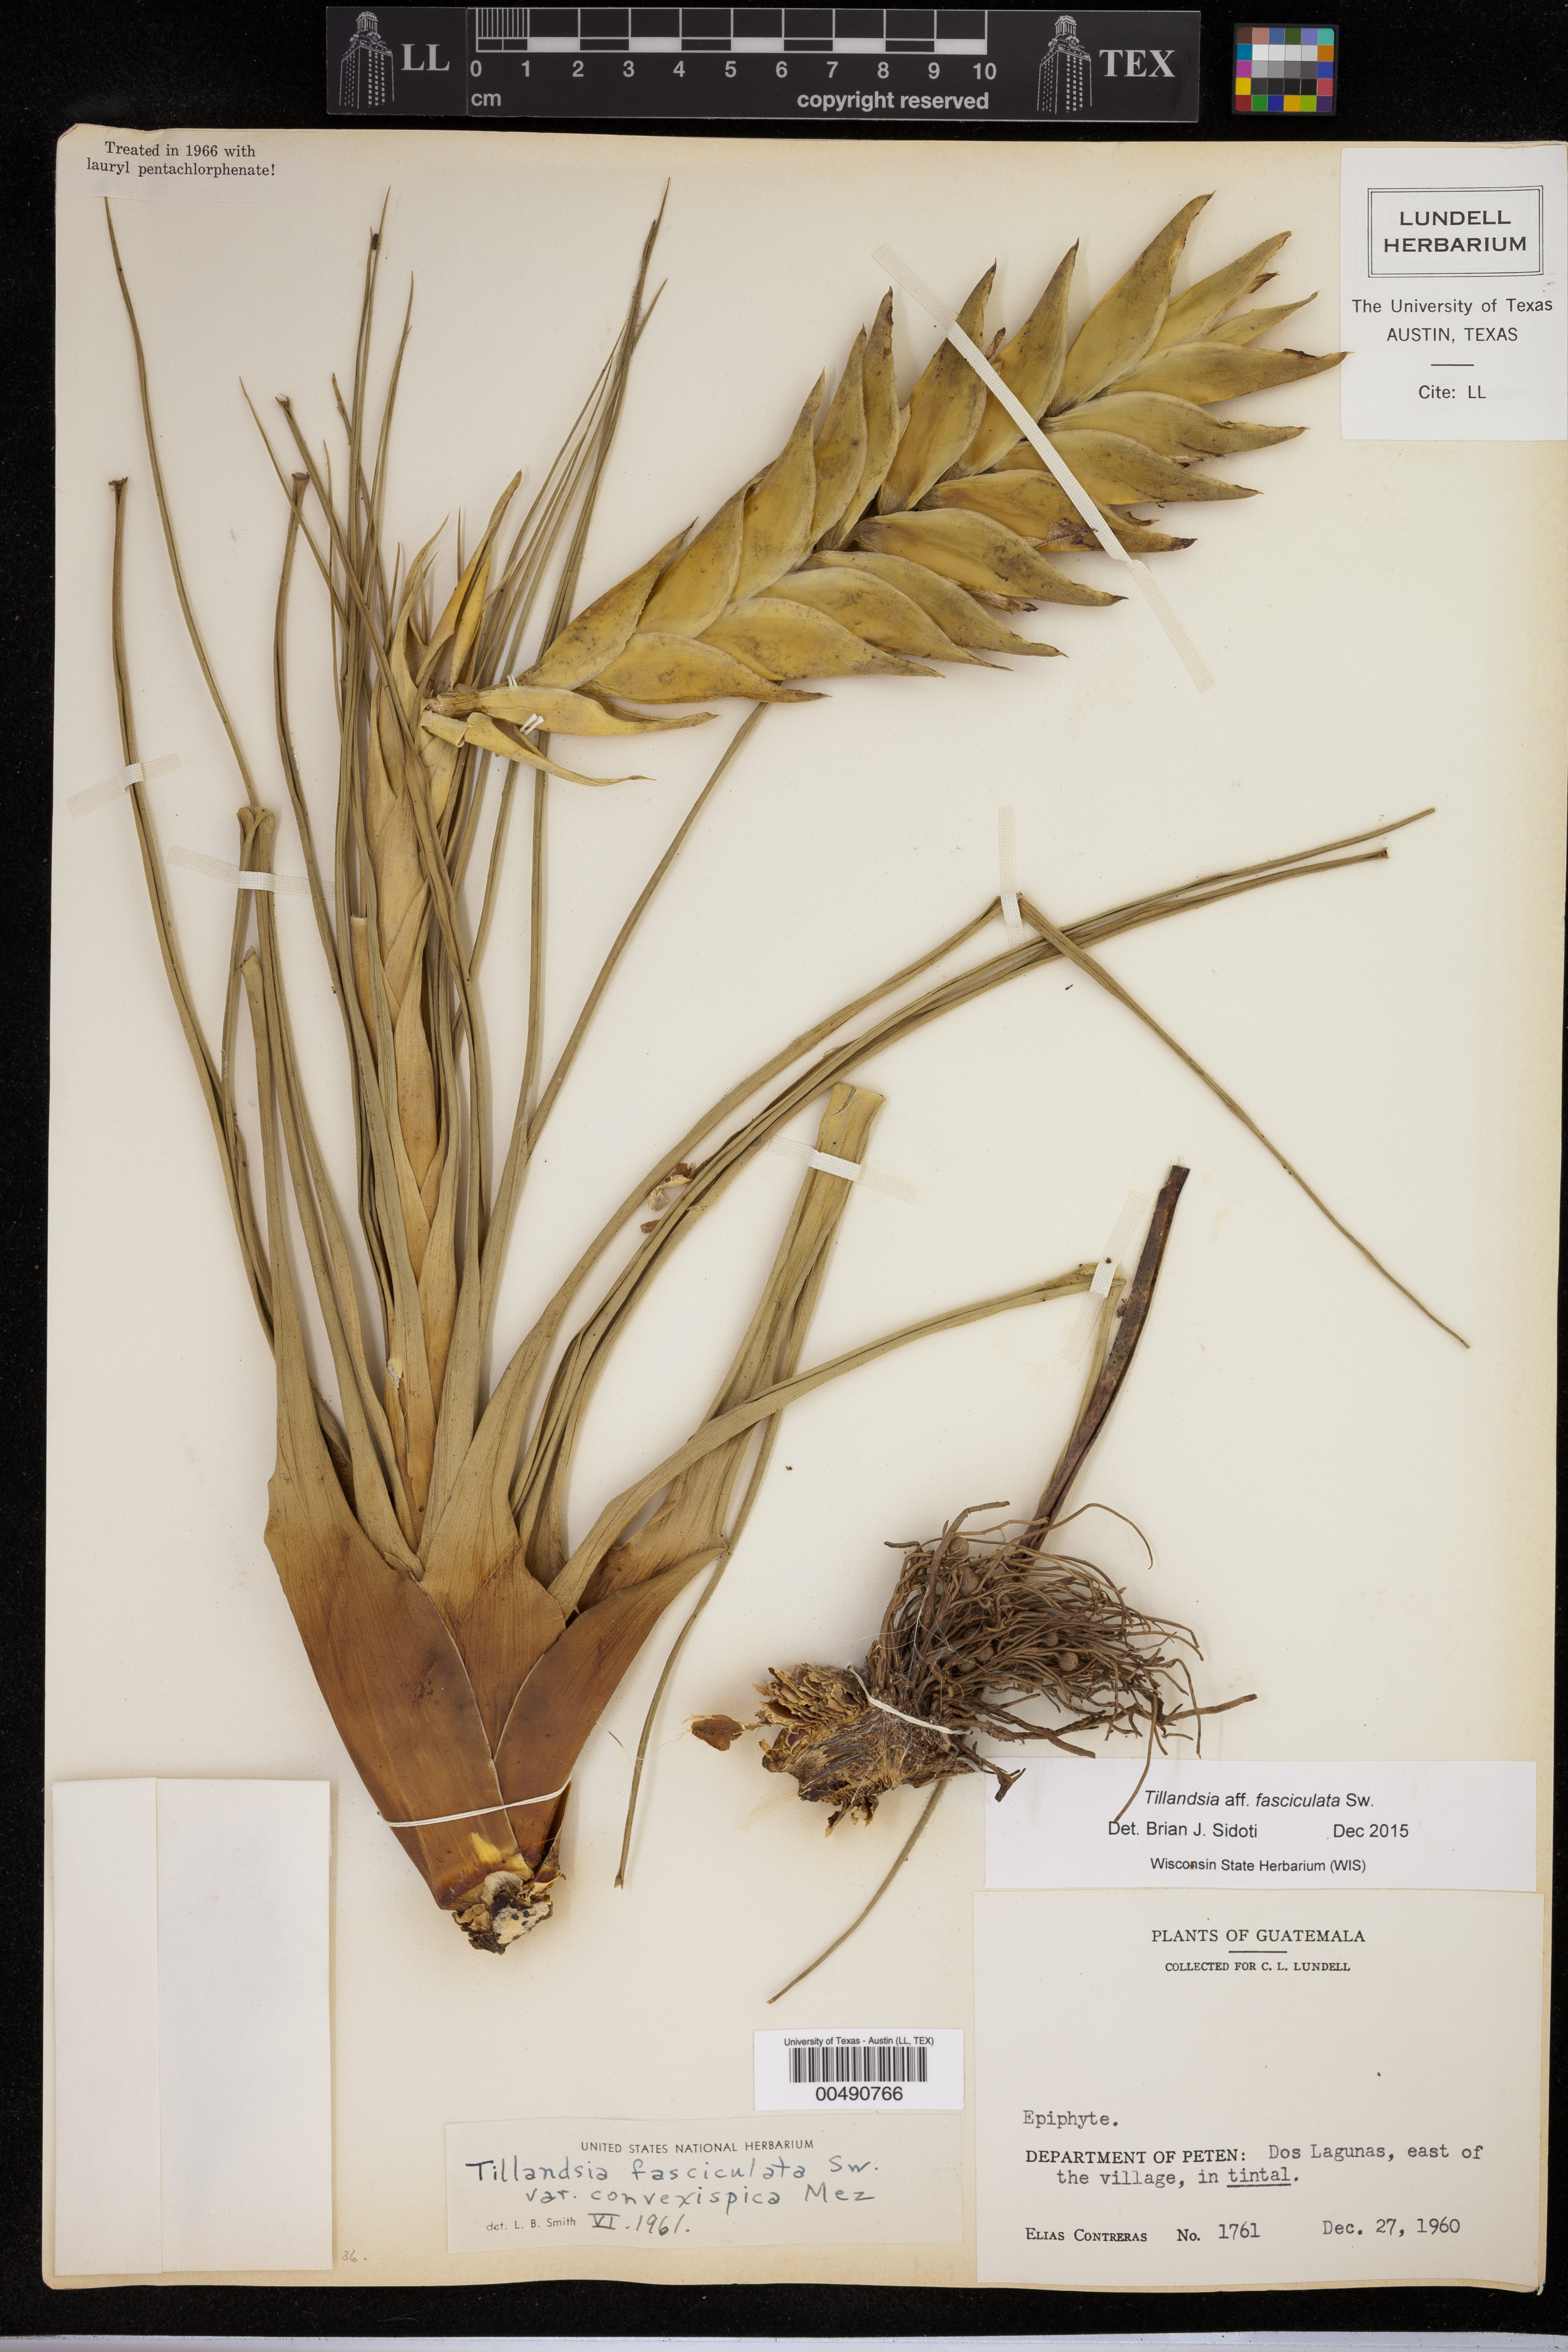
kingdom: Plantae
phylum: Tracheophyta
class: Liliopsida
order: Poales
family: Bromeliaceae
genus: Tillandsia
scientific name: Tillandsia fasciculata
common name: Giant airplant
